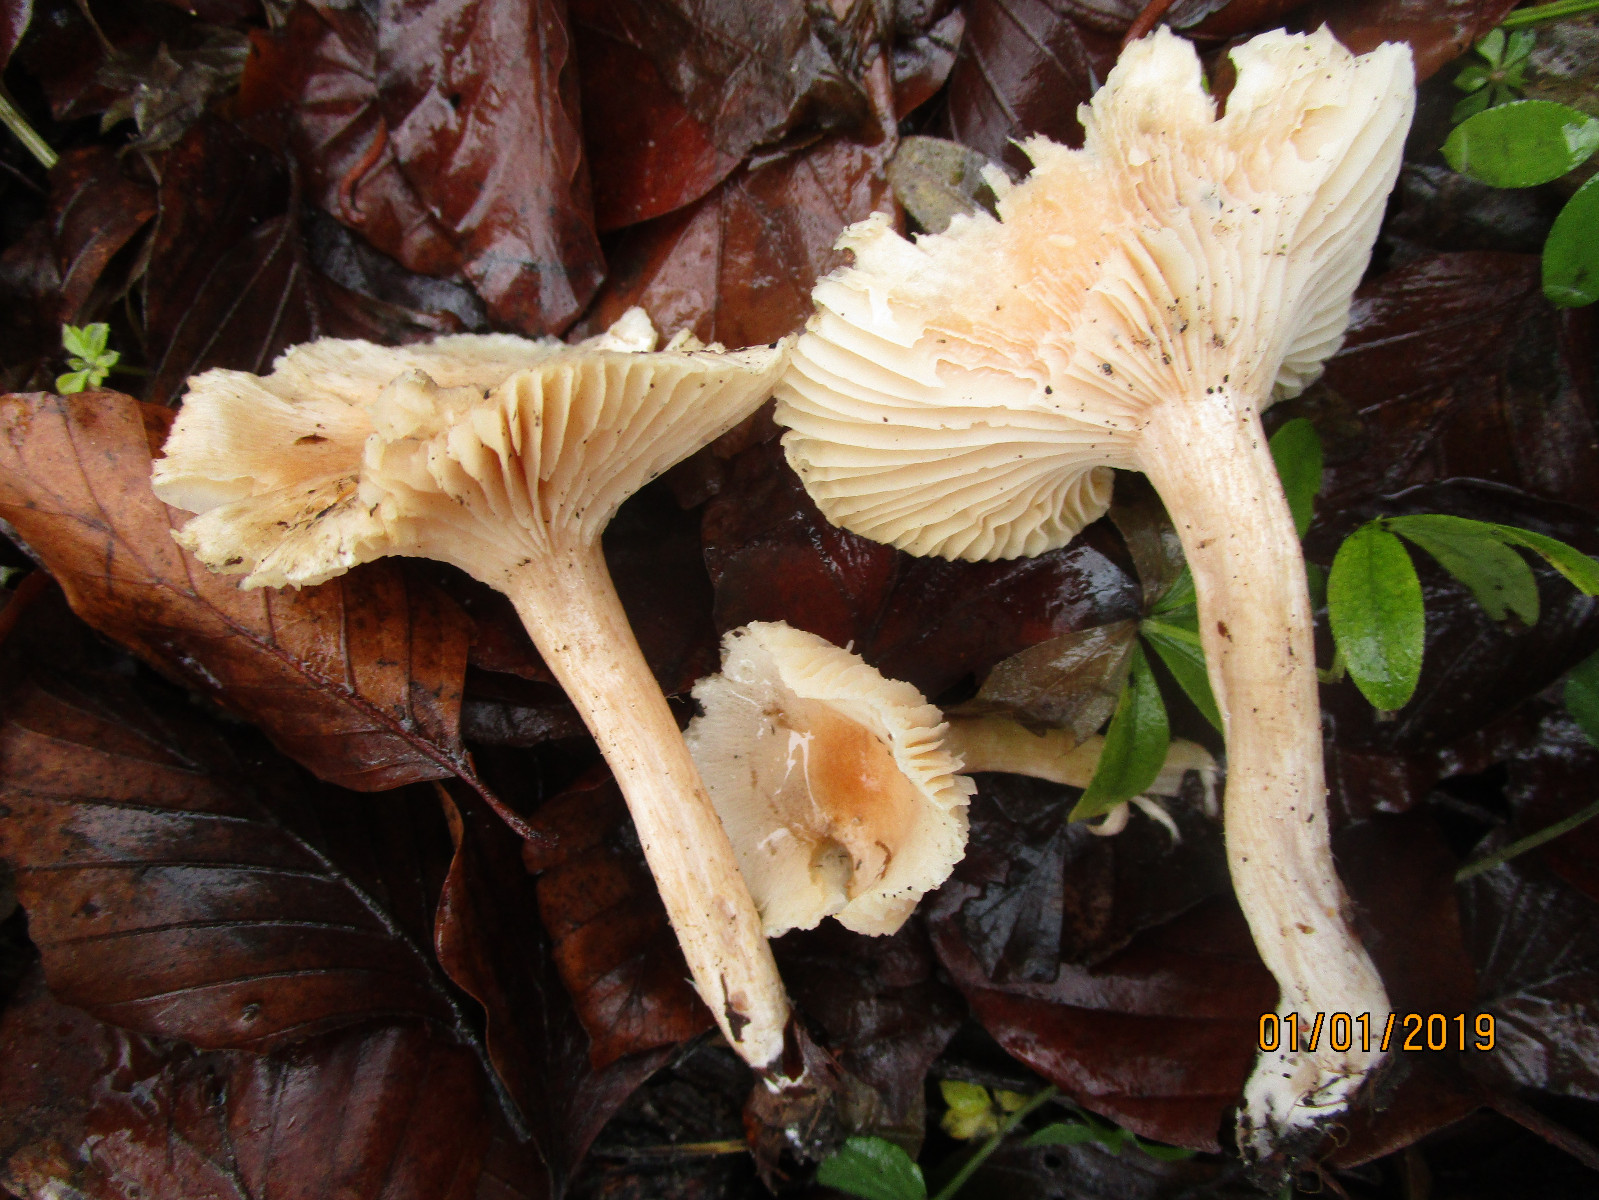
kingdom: Fungi
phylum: Basidiomycota
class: Agaricomycetes
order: Agaricales
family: Hygrophoraceae
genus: Hygrophorus
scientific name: Hygrophorus unicolor
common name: orangeøjet sneglehat
